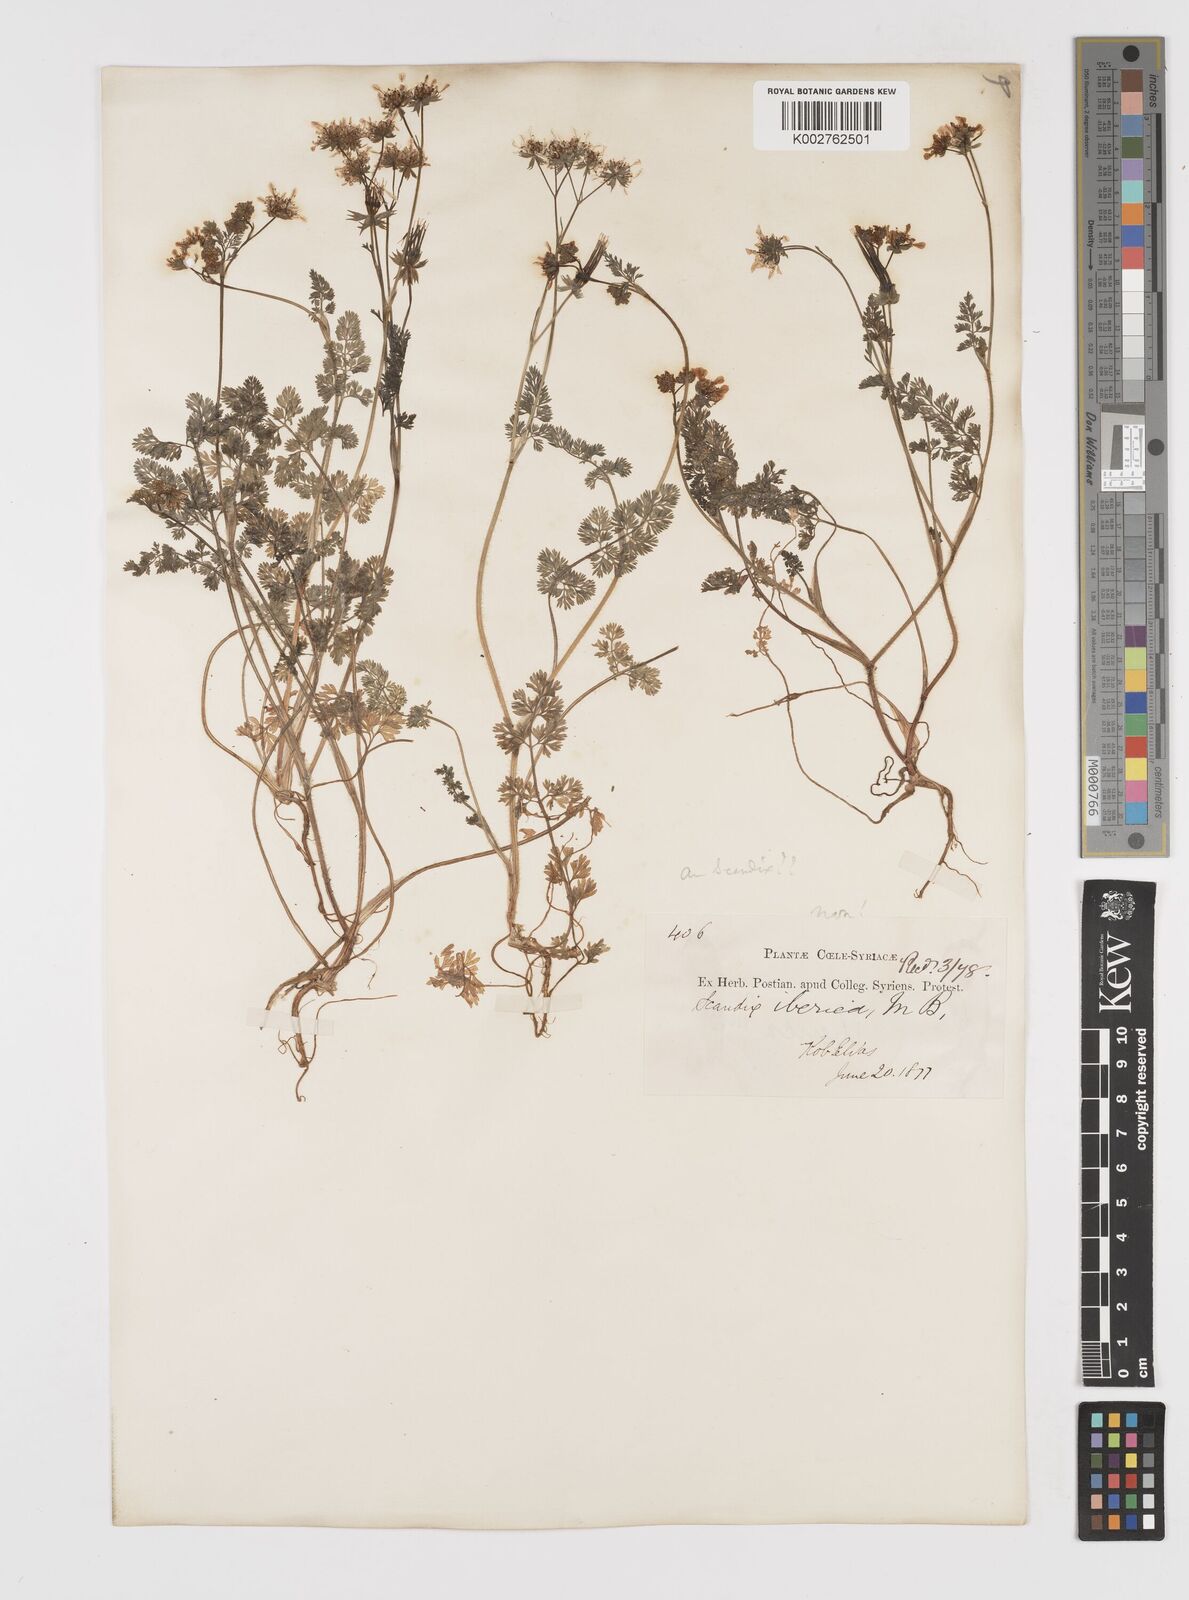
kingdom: Plantae
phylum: Tracheophyta
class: Magnoliopsida
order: Apiales
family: Apiaceae
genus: Scandix
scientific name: Scandix iberica
